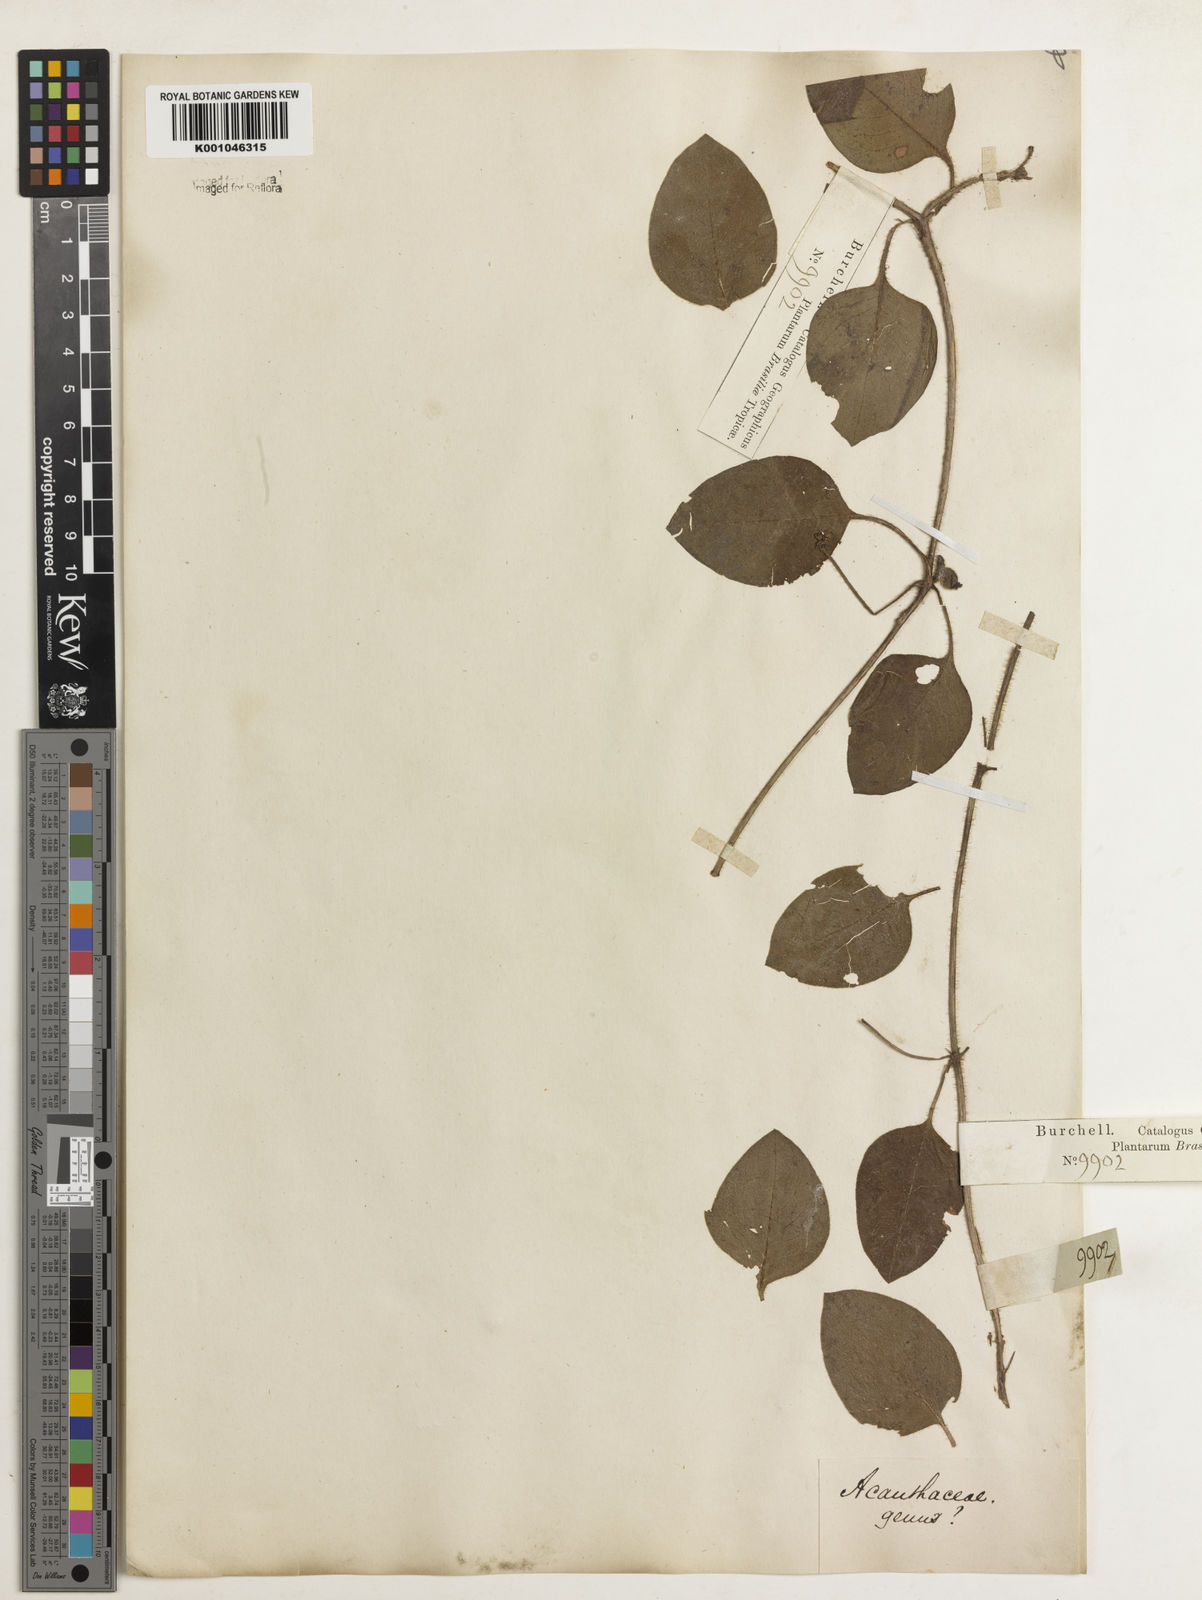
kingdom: Plantae
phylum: Tracheophyta
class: Magnoliopsida
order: Lamiales
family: Acanthaceae
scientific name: Acanthaceae
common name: Acanthaceae
